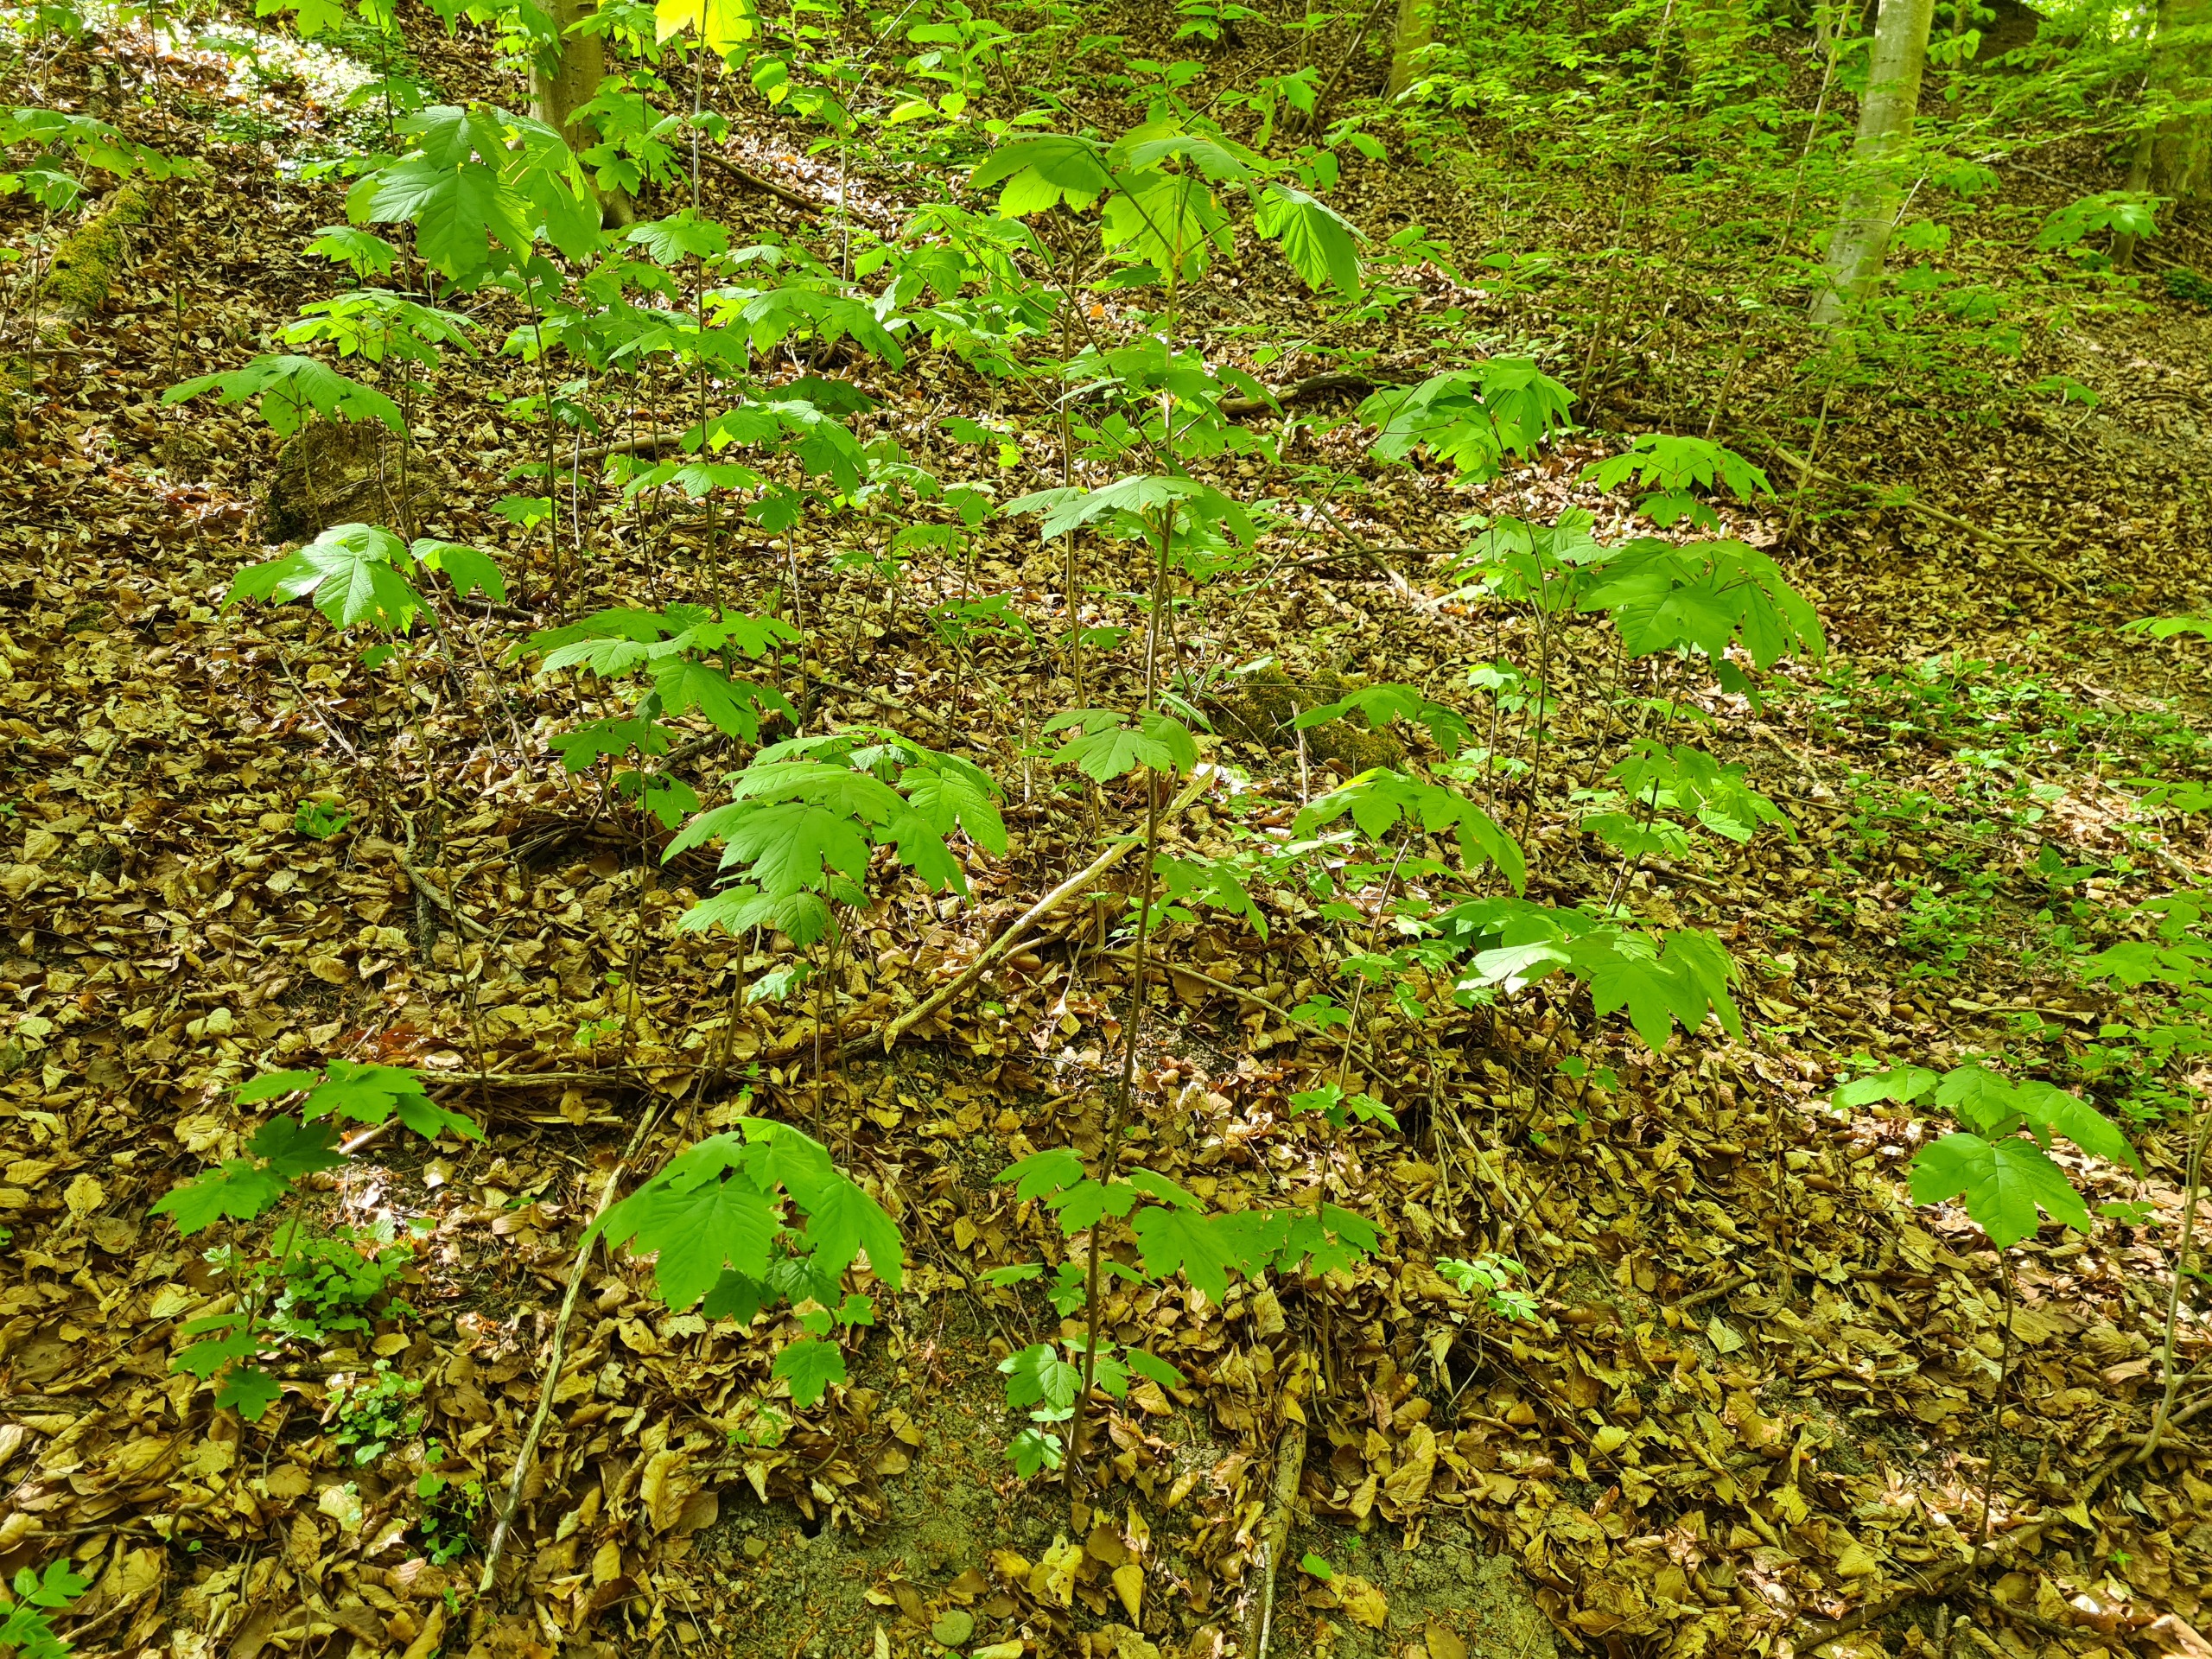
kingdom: Plantae
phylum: Tracheophyta
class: Magnoliopsida
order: Sapindales
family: Sapindaceae
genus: Acer
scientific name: Acer pseudoplatanus
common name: Ahorn
